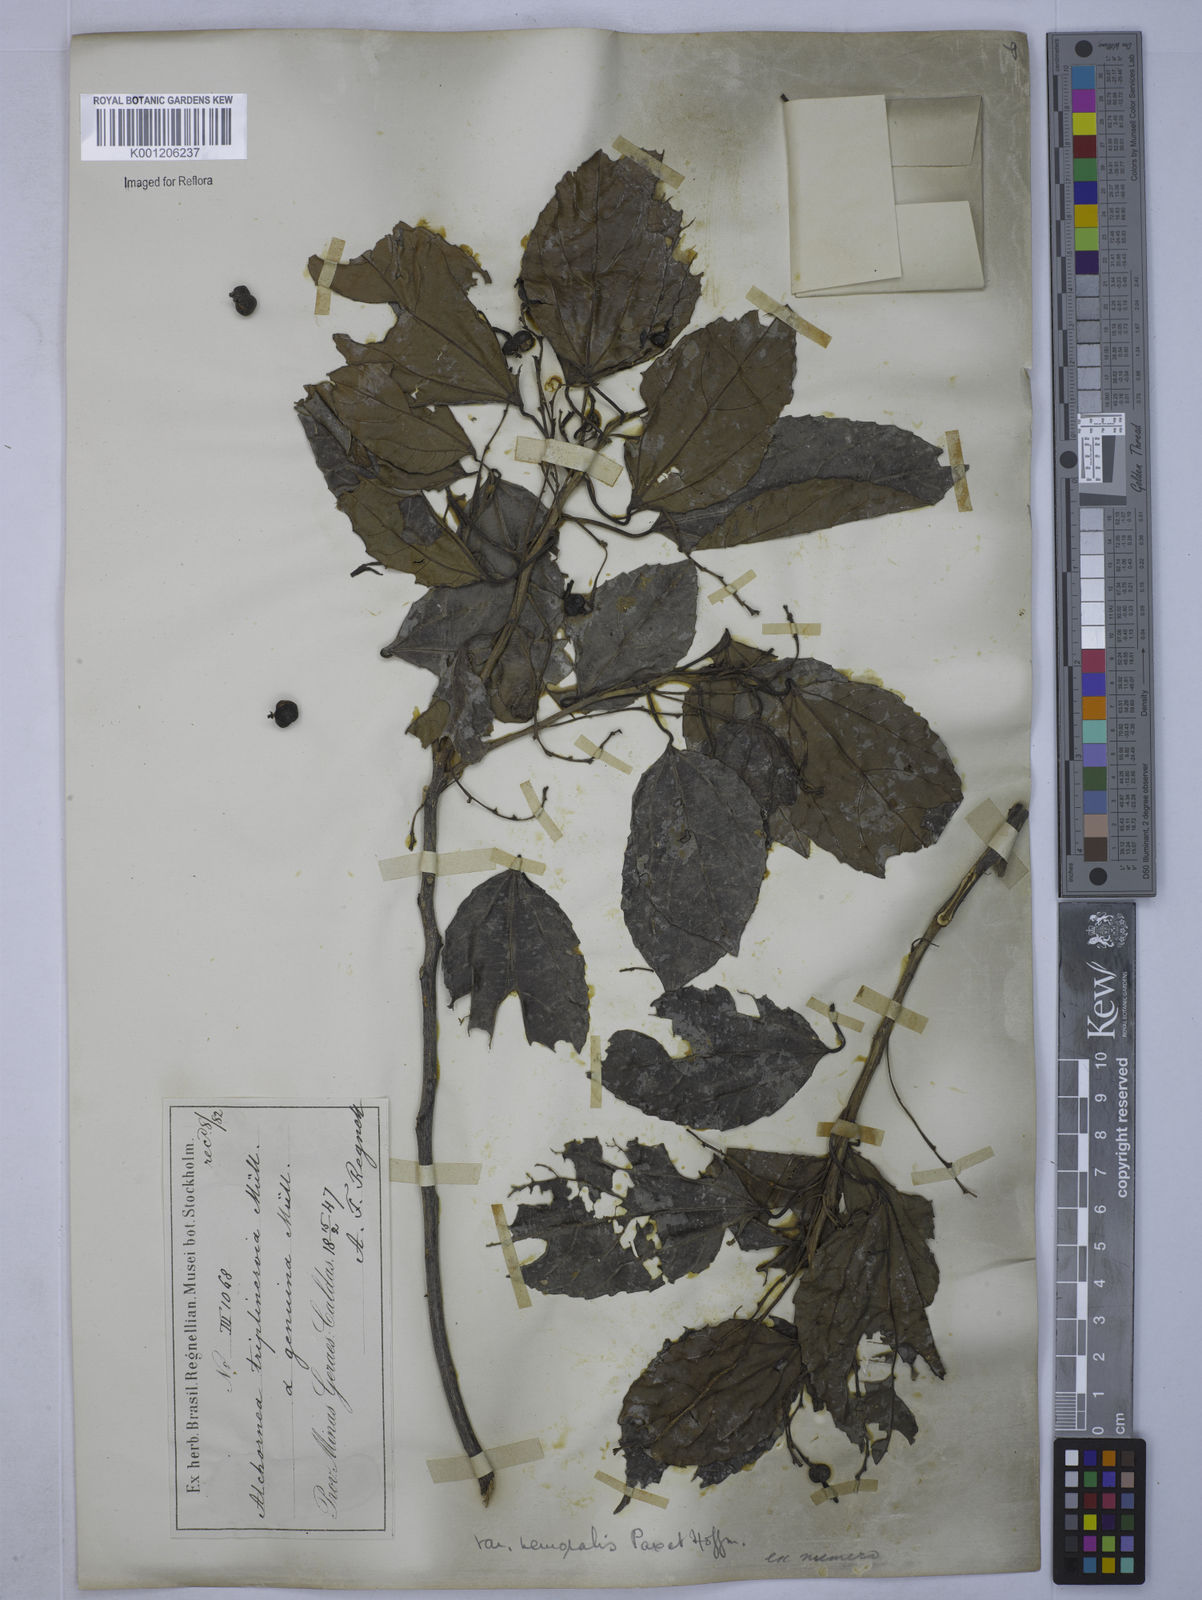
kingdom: Plantae
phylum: Tracheophyta
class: Magnoliopsida
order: Malpighiales
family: Euphorbiaceae
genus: Alchornea
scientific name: Alchornea triplinervia
